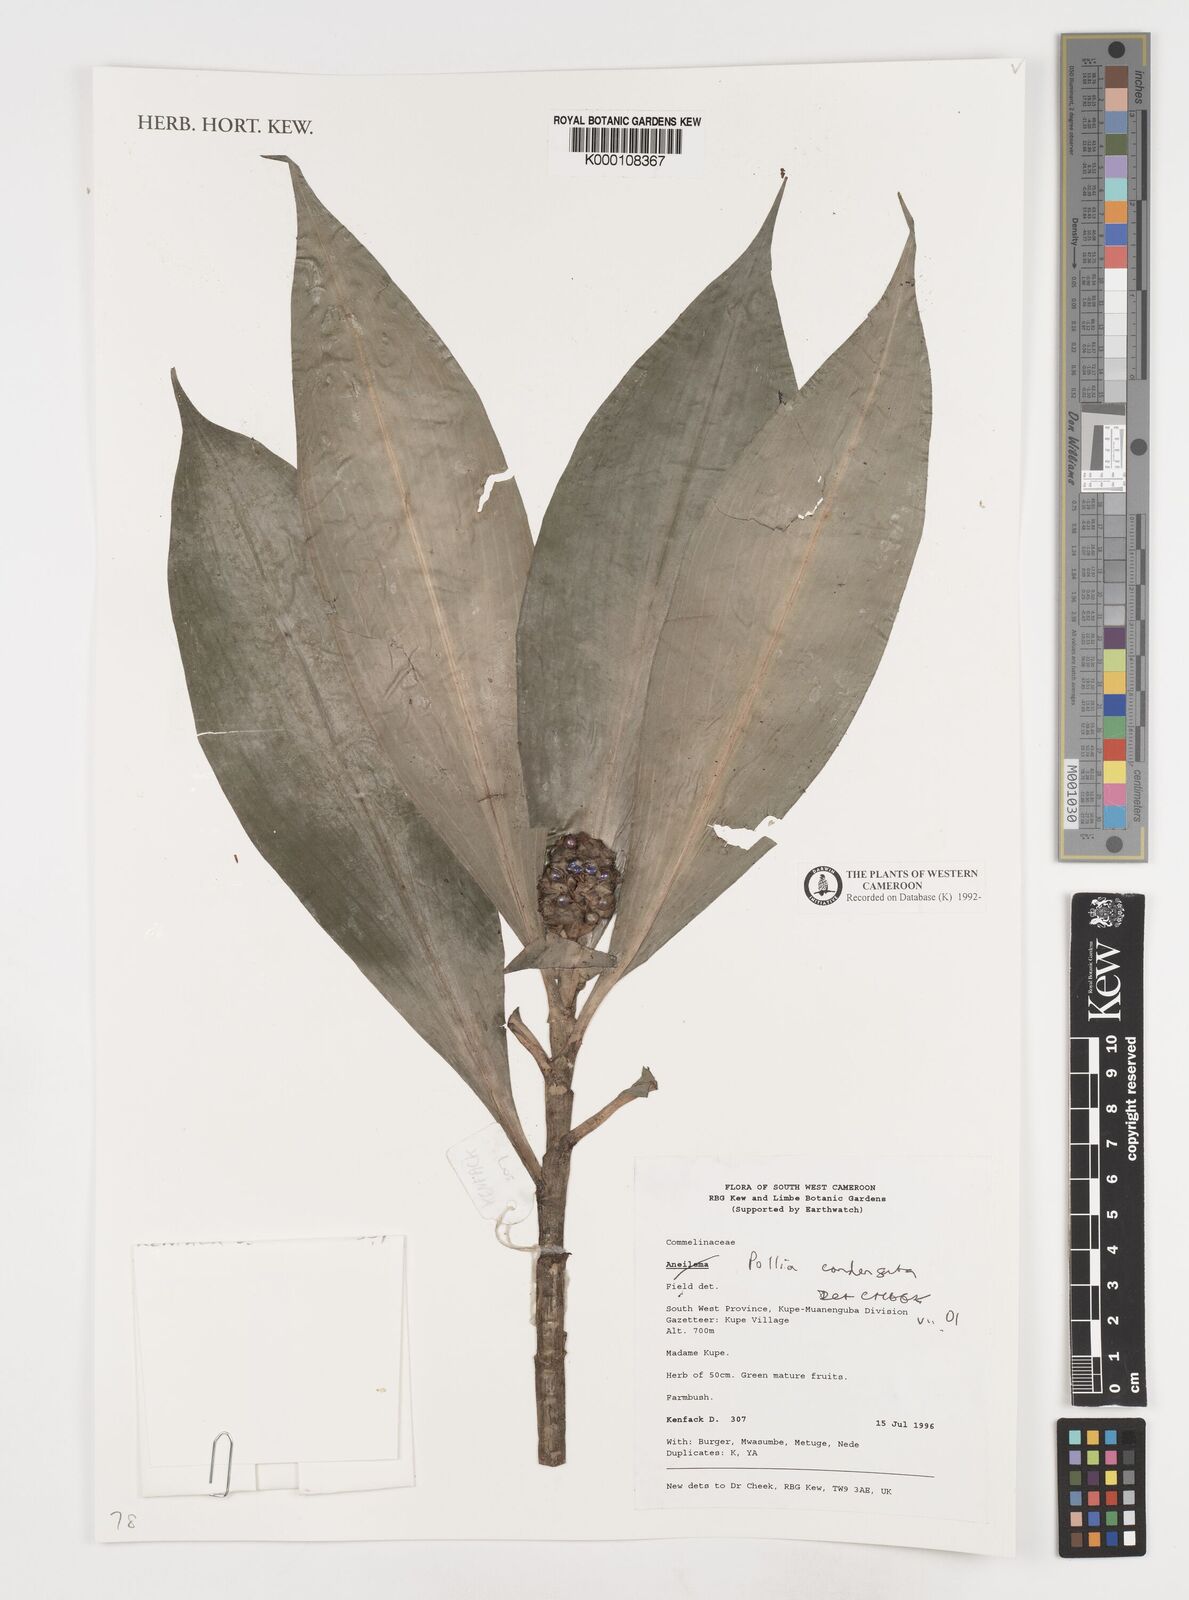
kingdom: Plantae
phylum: Tracheophyta
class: Liliopsida
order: Commelinales
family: Commelinaceae
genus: Pollia
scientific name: Pollia condensata
